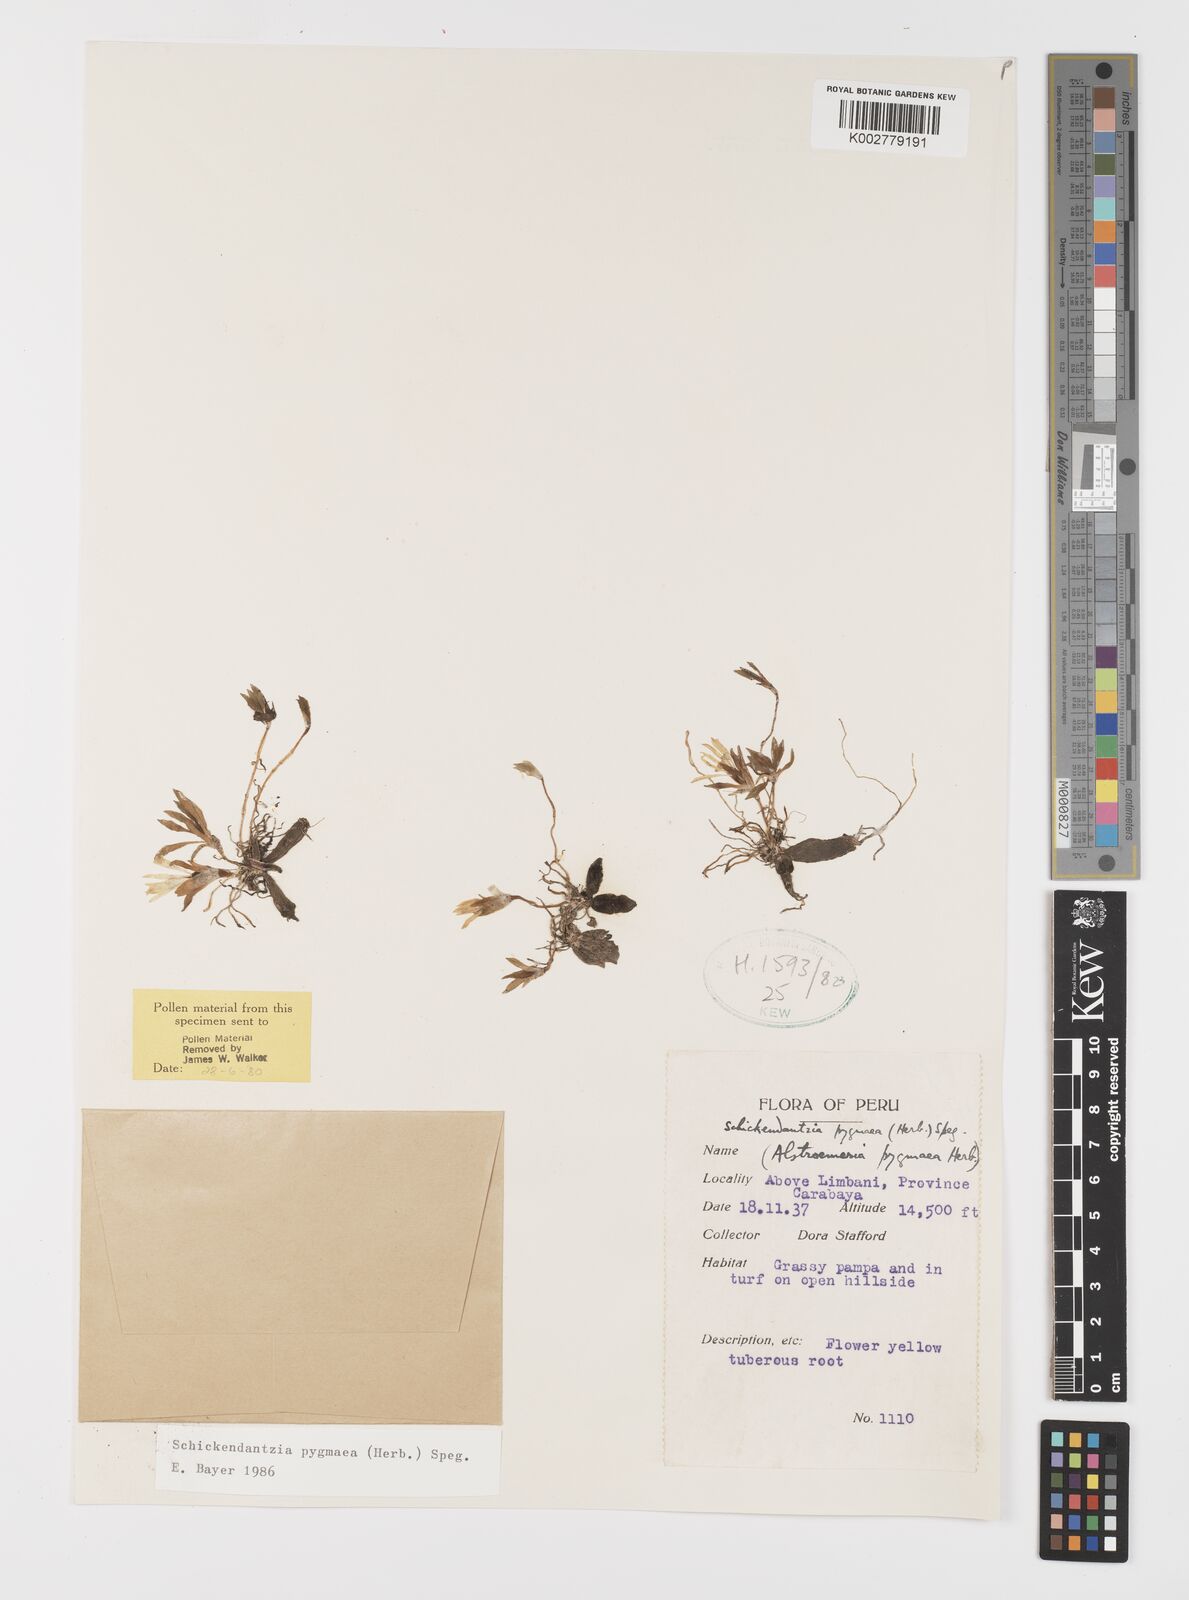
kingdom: Plantae
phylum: Tracheophyta
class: Liliopsida
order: Liliales
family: Alstroemeriaceae
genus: Alstroemeria
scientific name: Alstroemeria pygmaea
